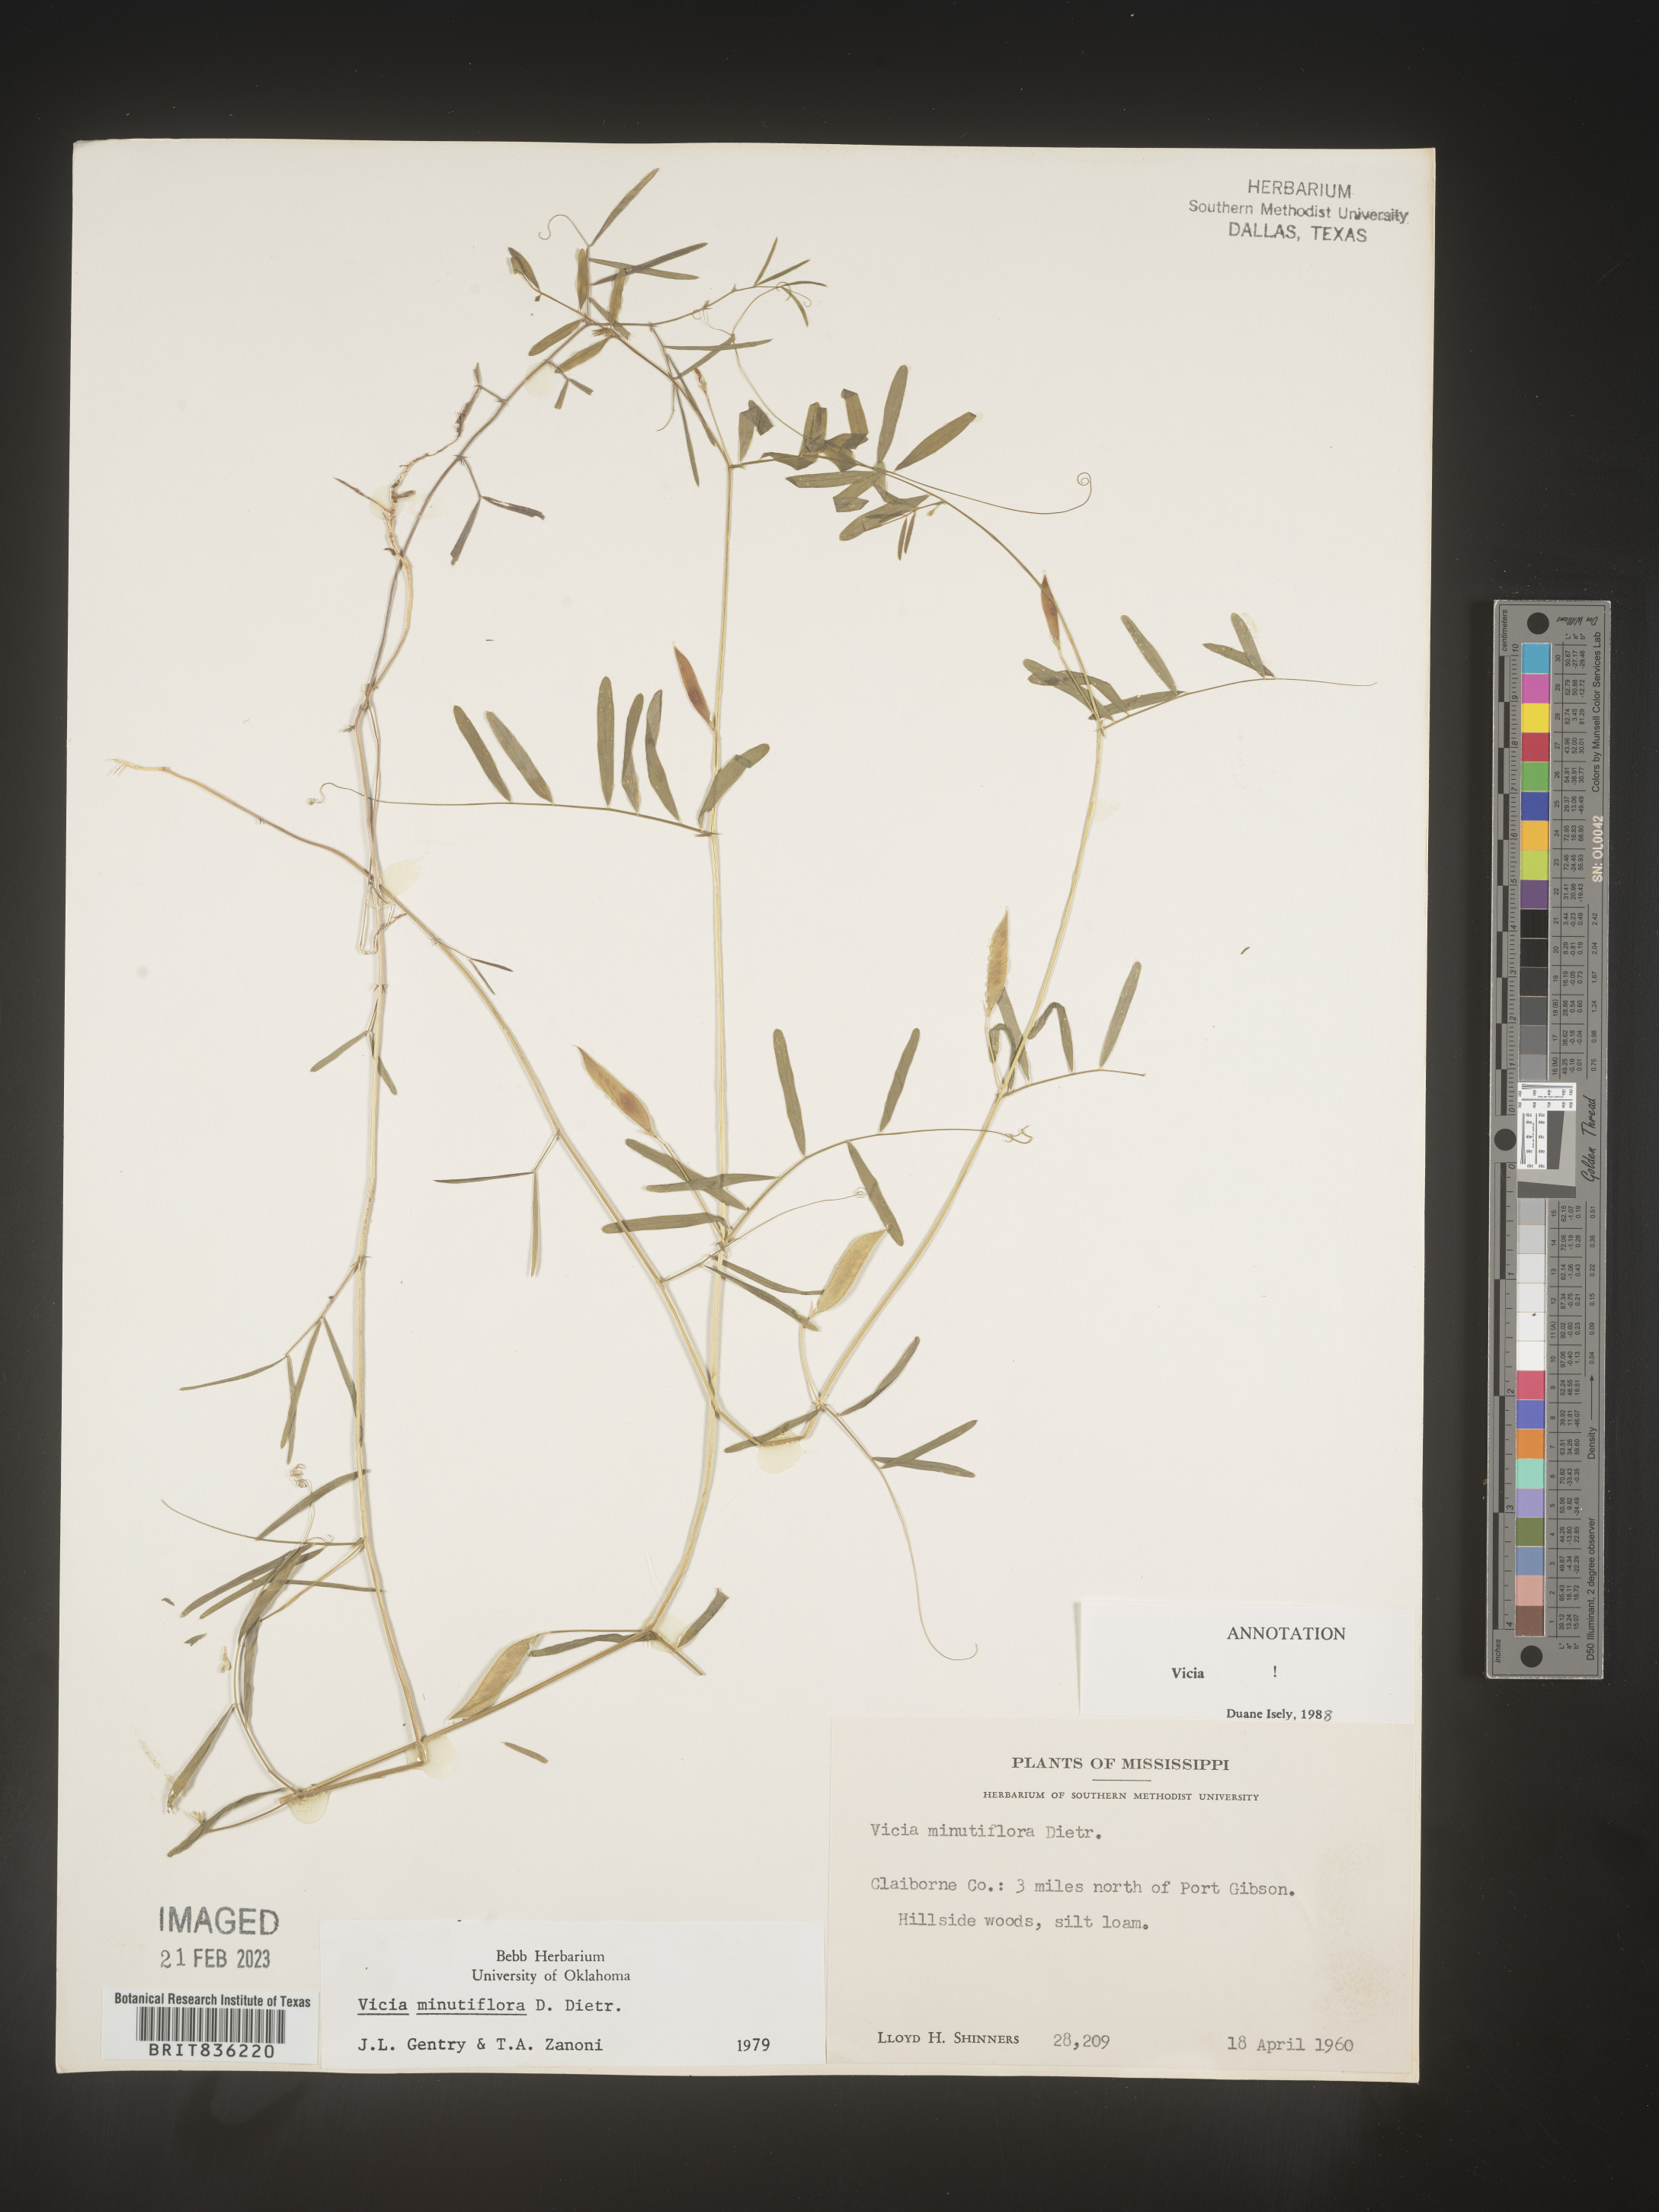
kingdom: Plantae
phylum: Tracheophyta
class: Magnoliopsida
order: Fabales
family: Fabaceae
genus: Vicia
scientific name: Vicia minutiflora
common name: Pygmy-flower vetch
